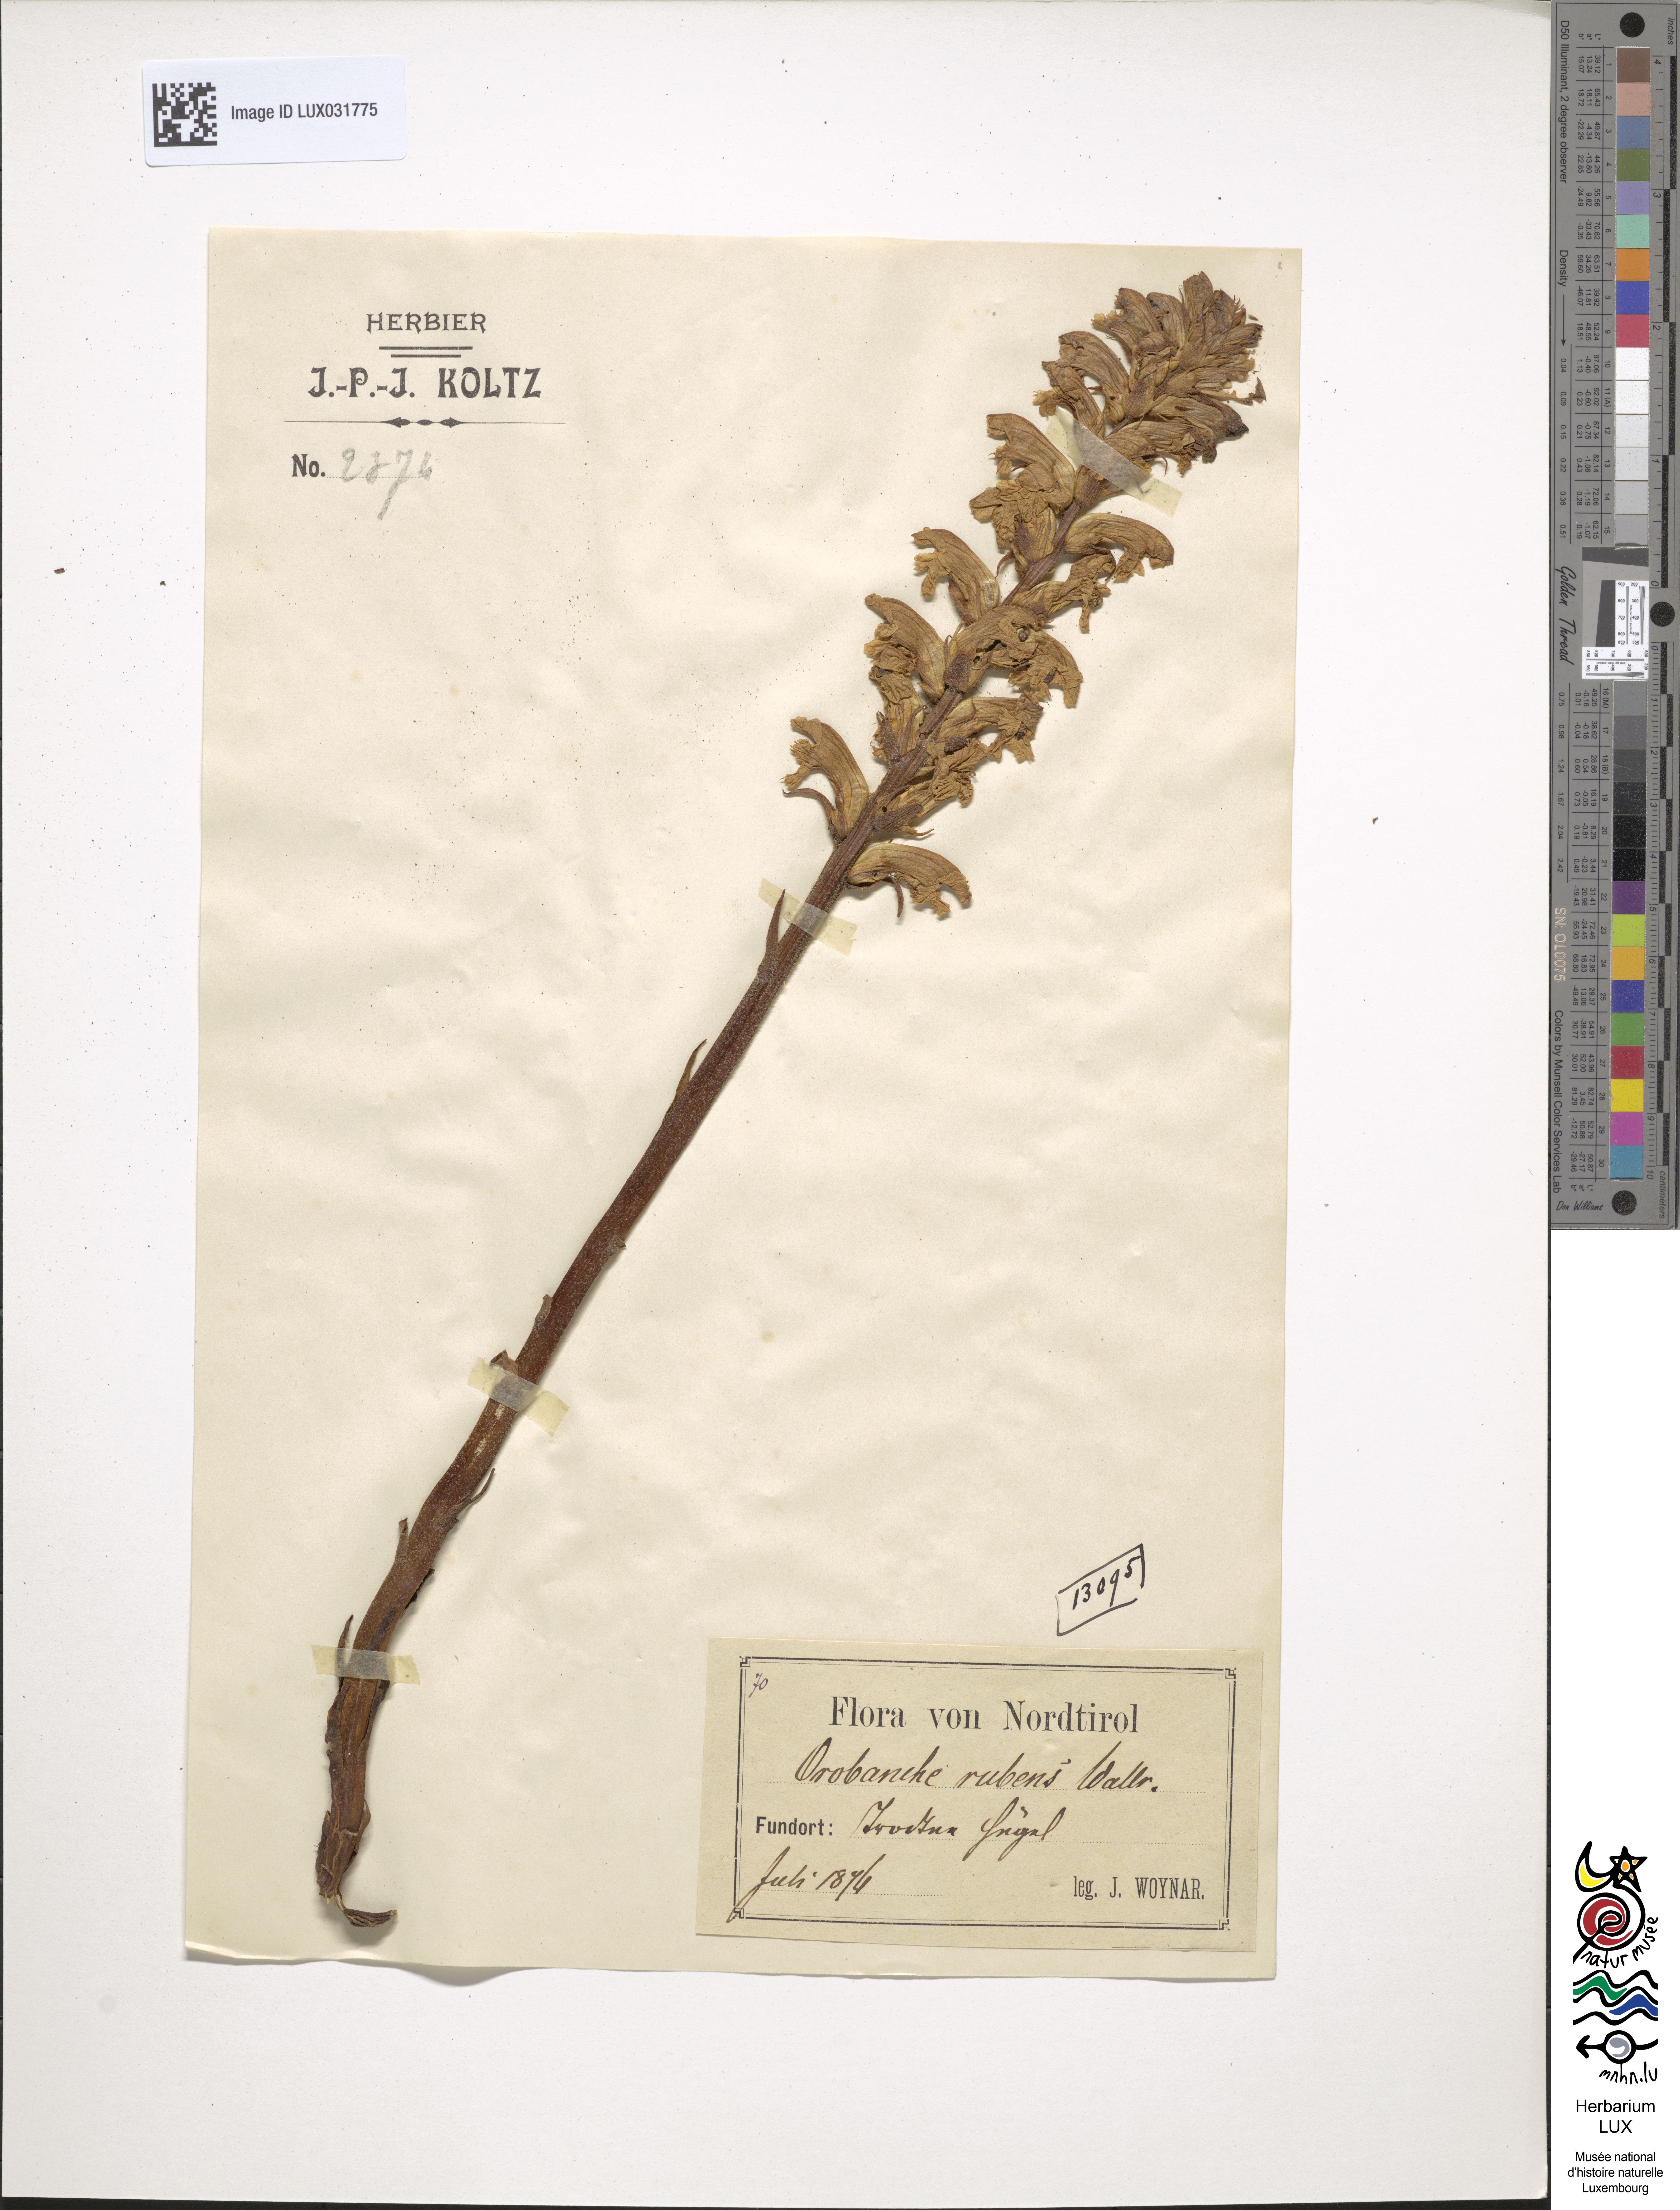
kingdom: Plantae
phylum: Tracheophyta
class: Magnoliopsida
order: Lamiales
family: Orobanchaceae
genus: Orobanche
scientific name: Orobanche lutea
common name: Yellow broomrape
